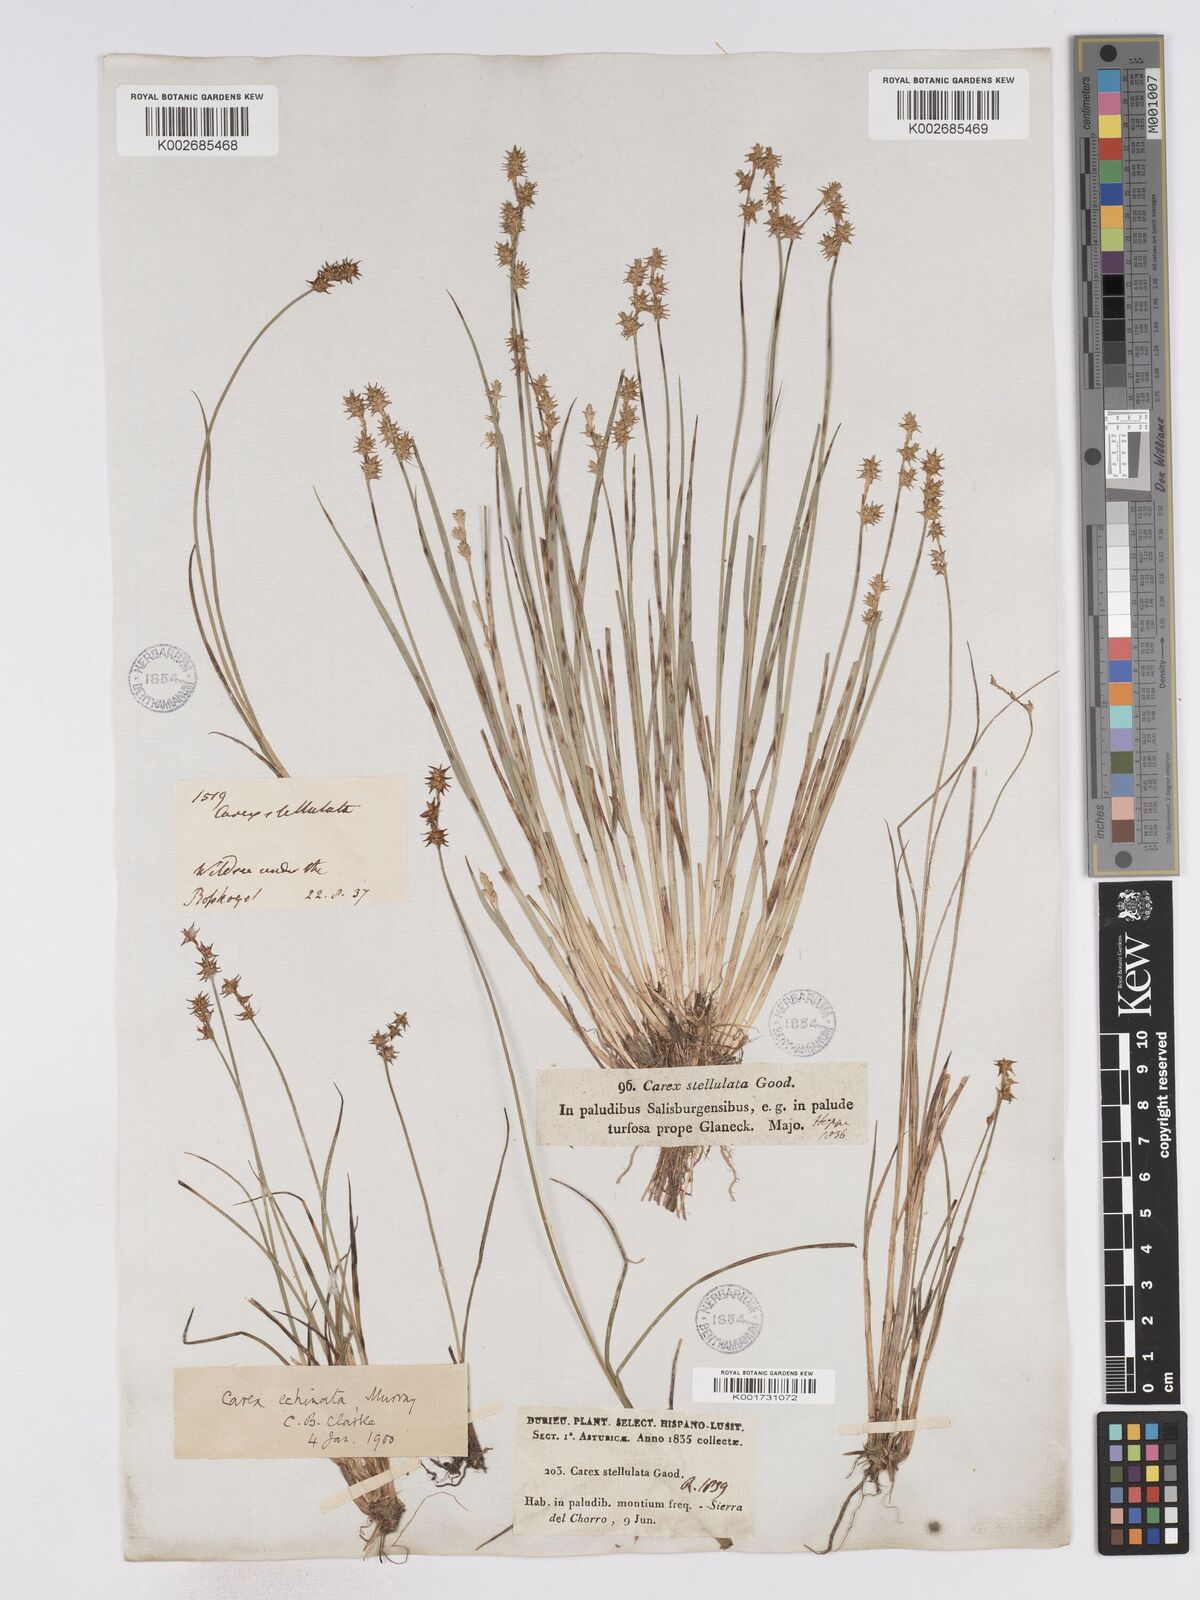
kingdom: Plantae
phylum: Tracheophyta
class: Liliopsida
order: Poales
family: Cyperaceae
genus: Carex
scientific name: Carex echinata
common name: Star sedge
